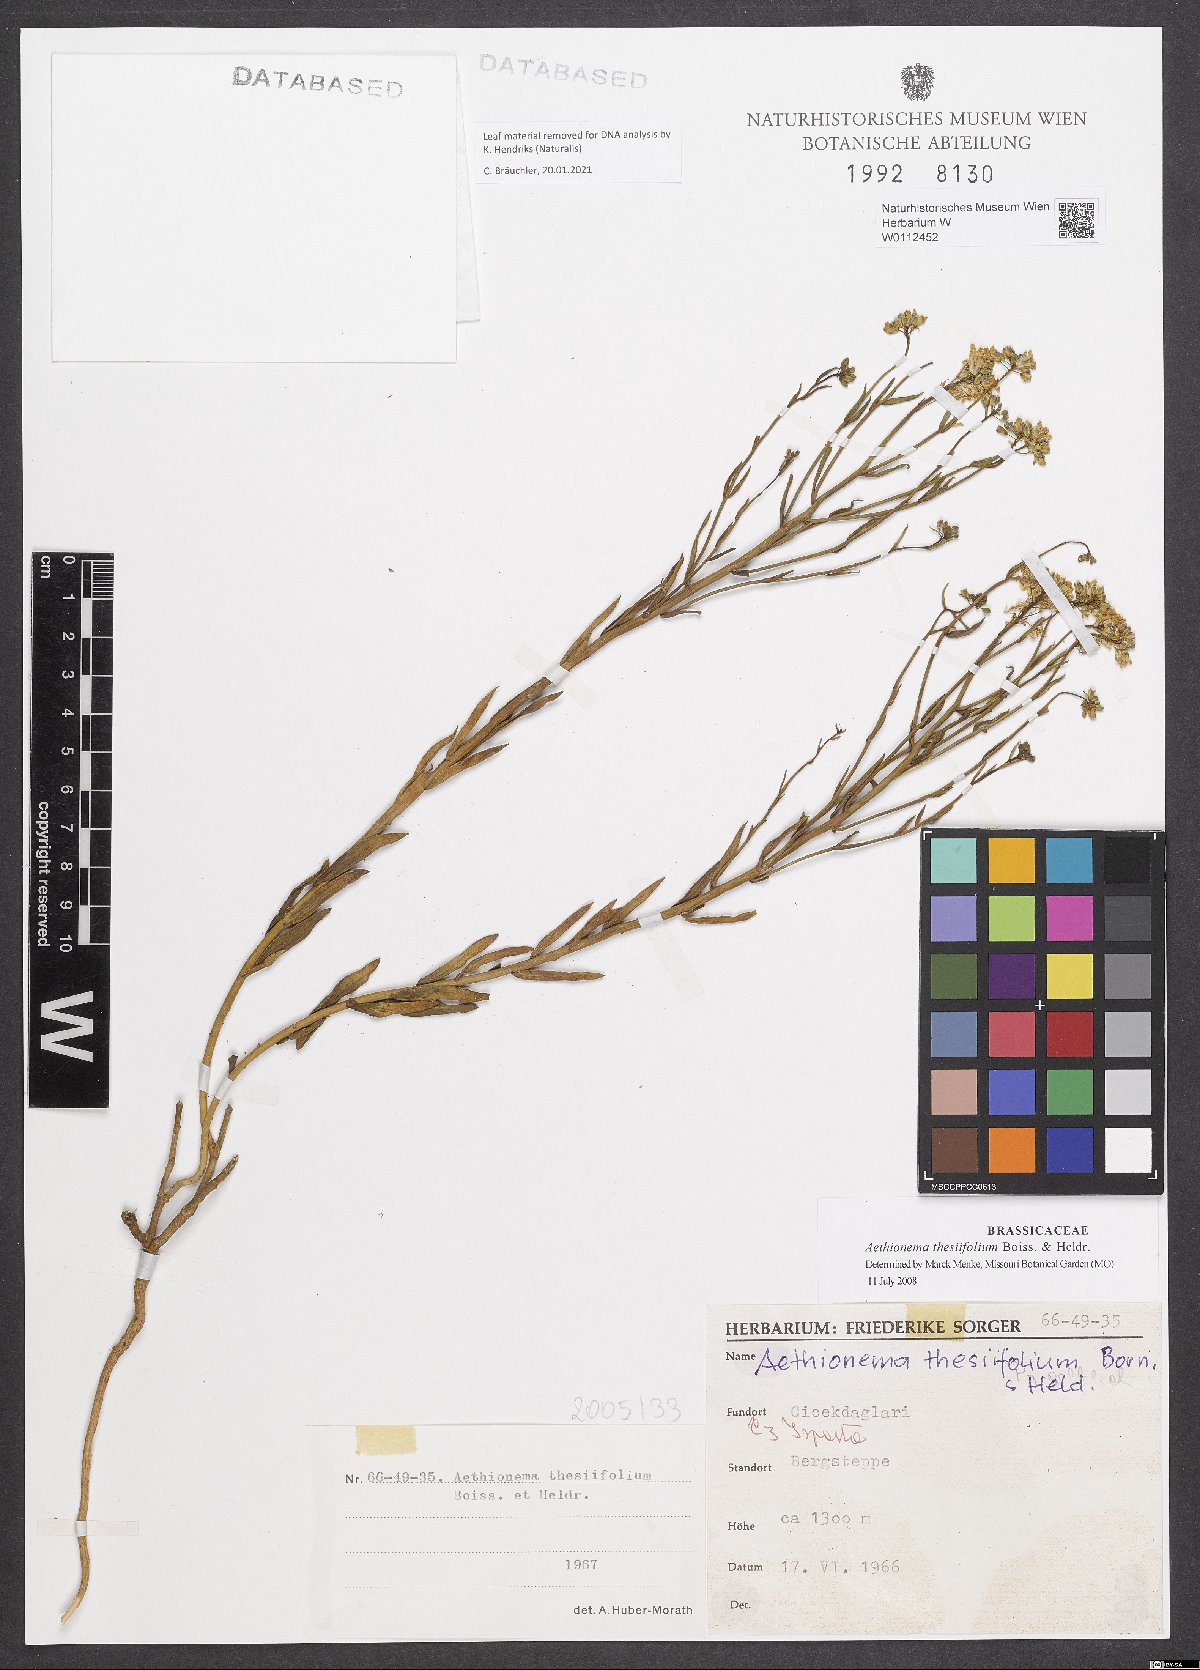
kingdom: Plantae
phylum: Tracheophyta
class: Magnoliopsida
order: Brassicales
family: Brassicaceae
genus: Aethionema
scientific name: Aethionema thesiifolium
